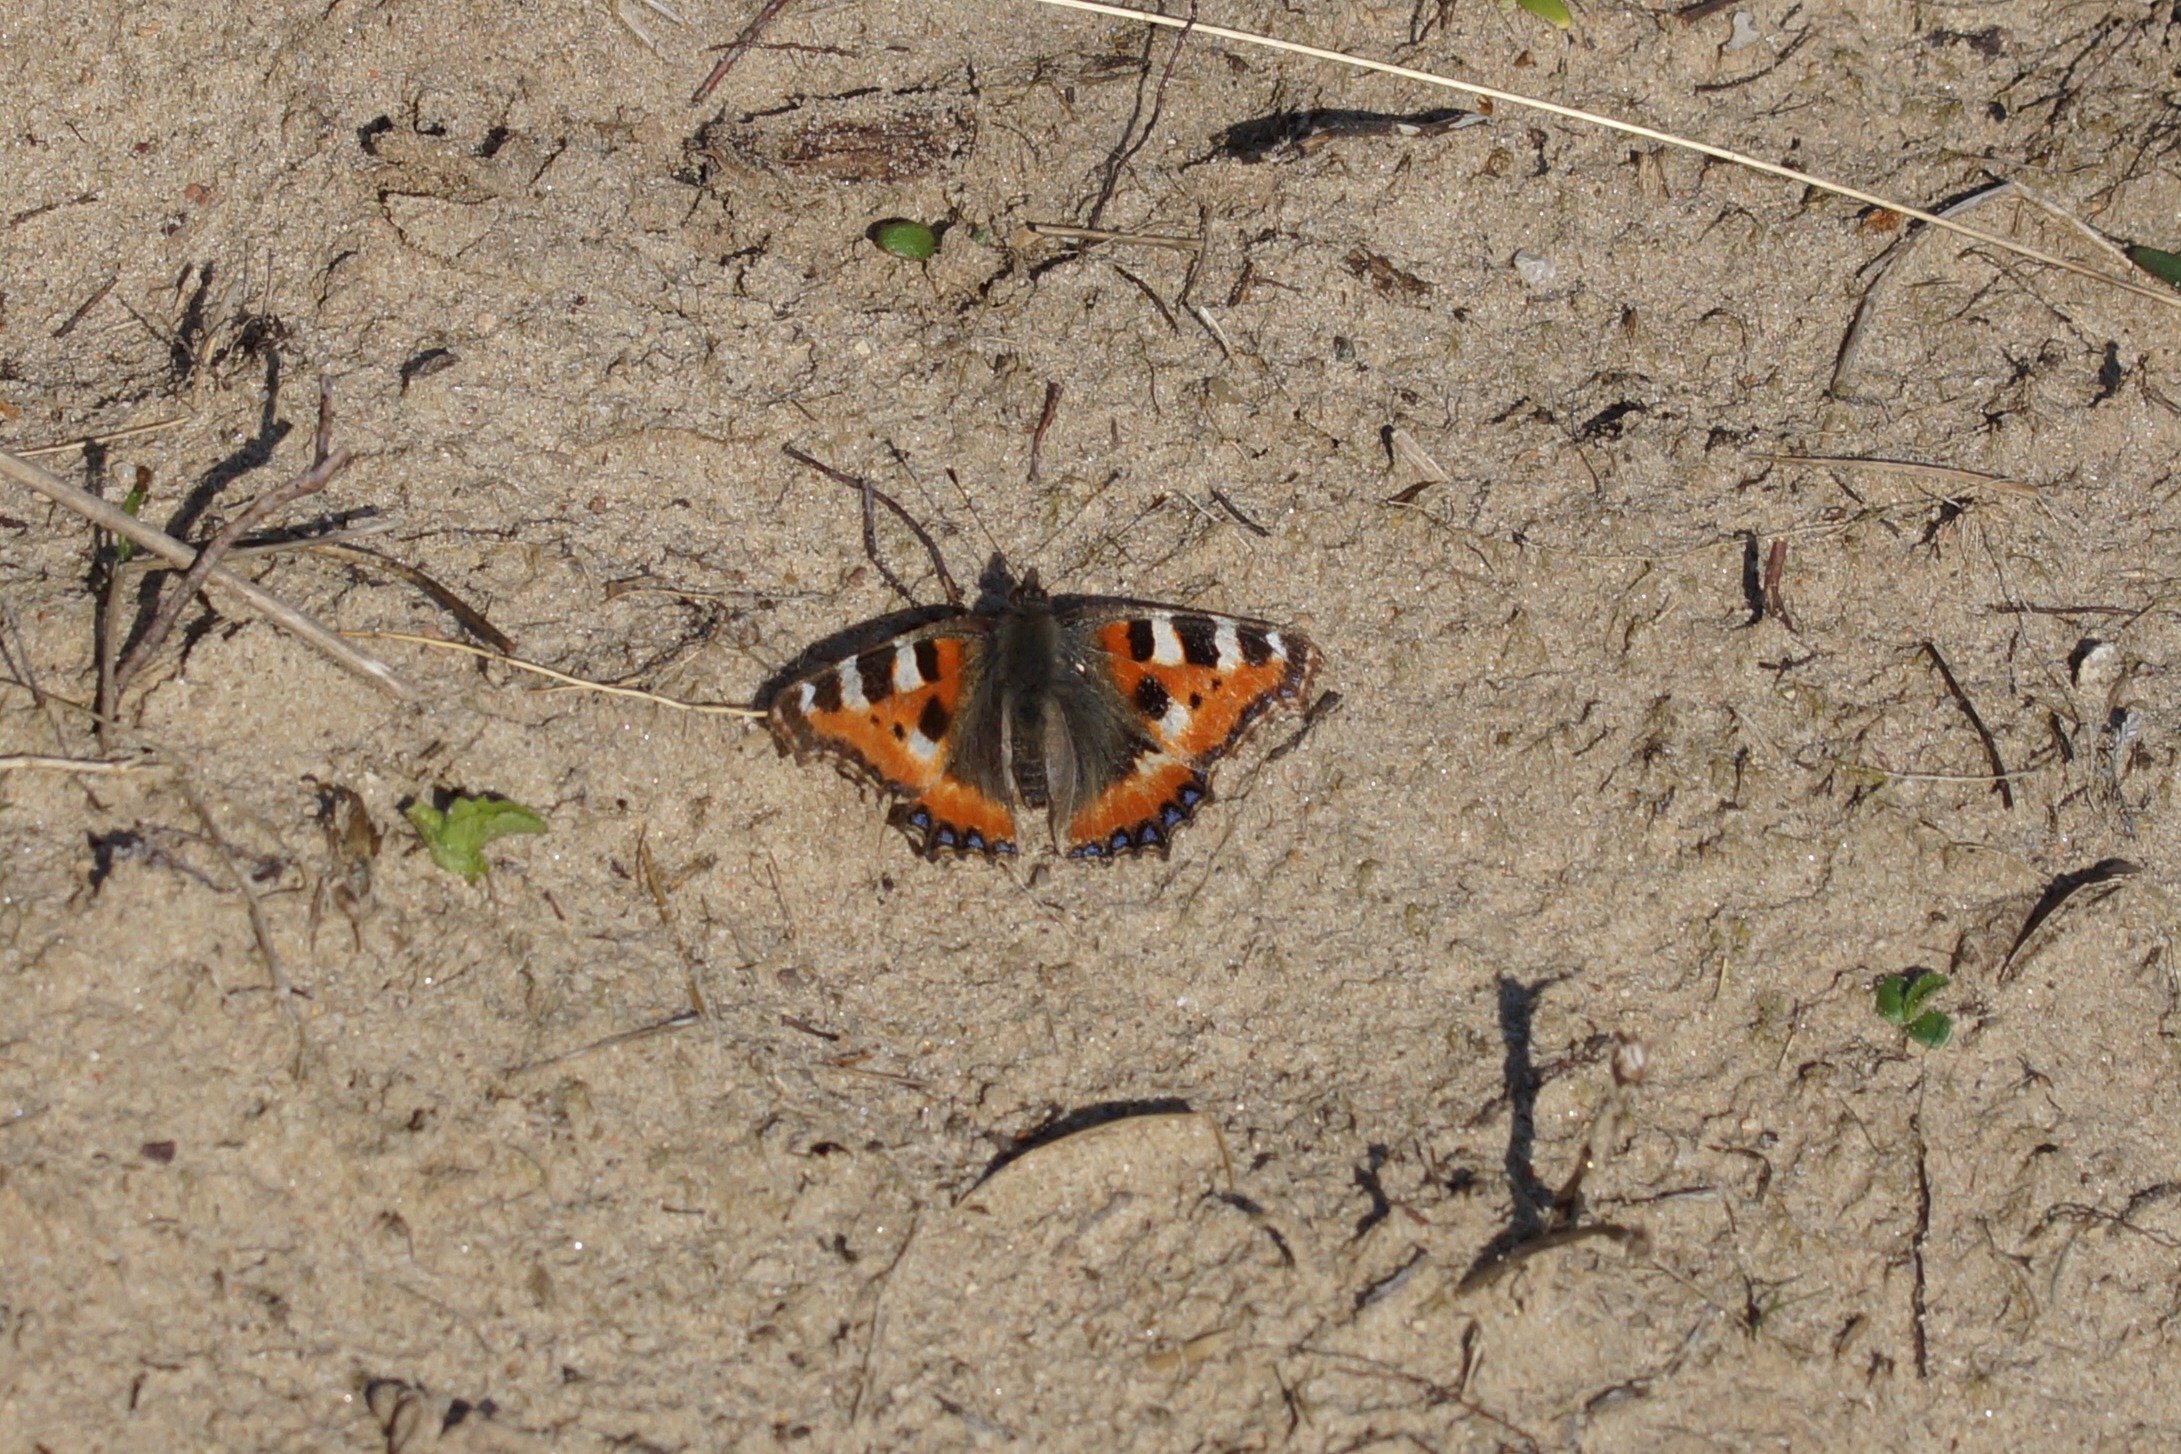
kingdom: Animalia
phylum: Arthropoda
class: Insecta
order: Lepidoptera
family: Nymphalidae
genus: Aglais
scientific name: Aglais urticae
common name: Nældens takvinge
